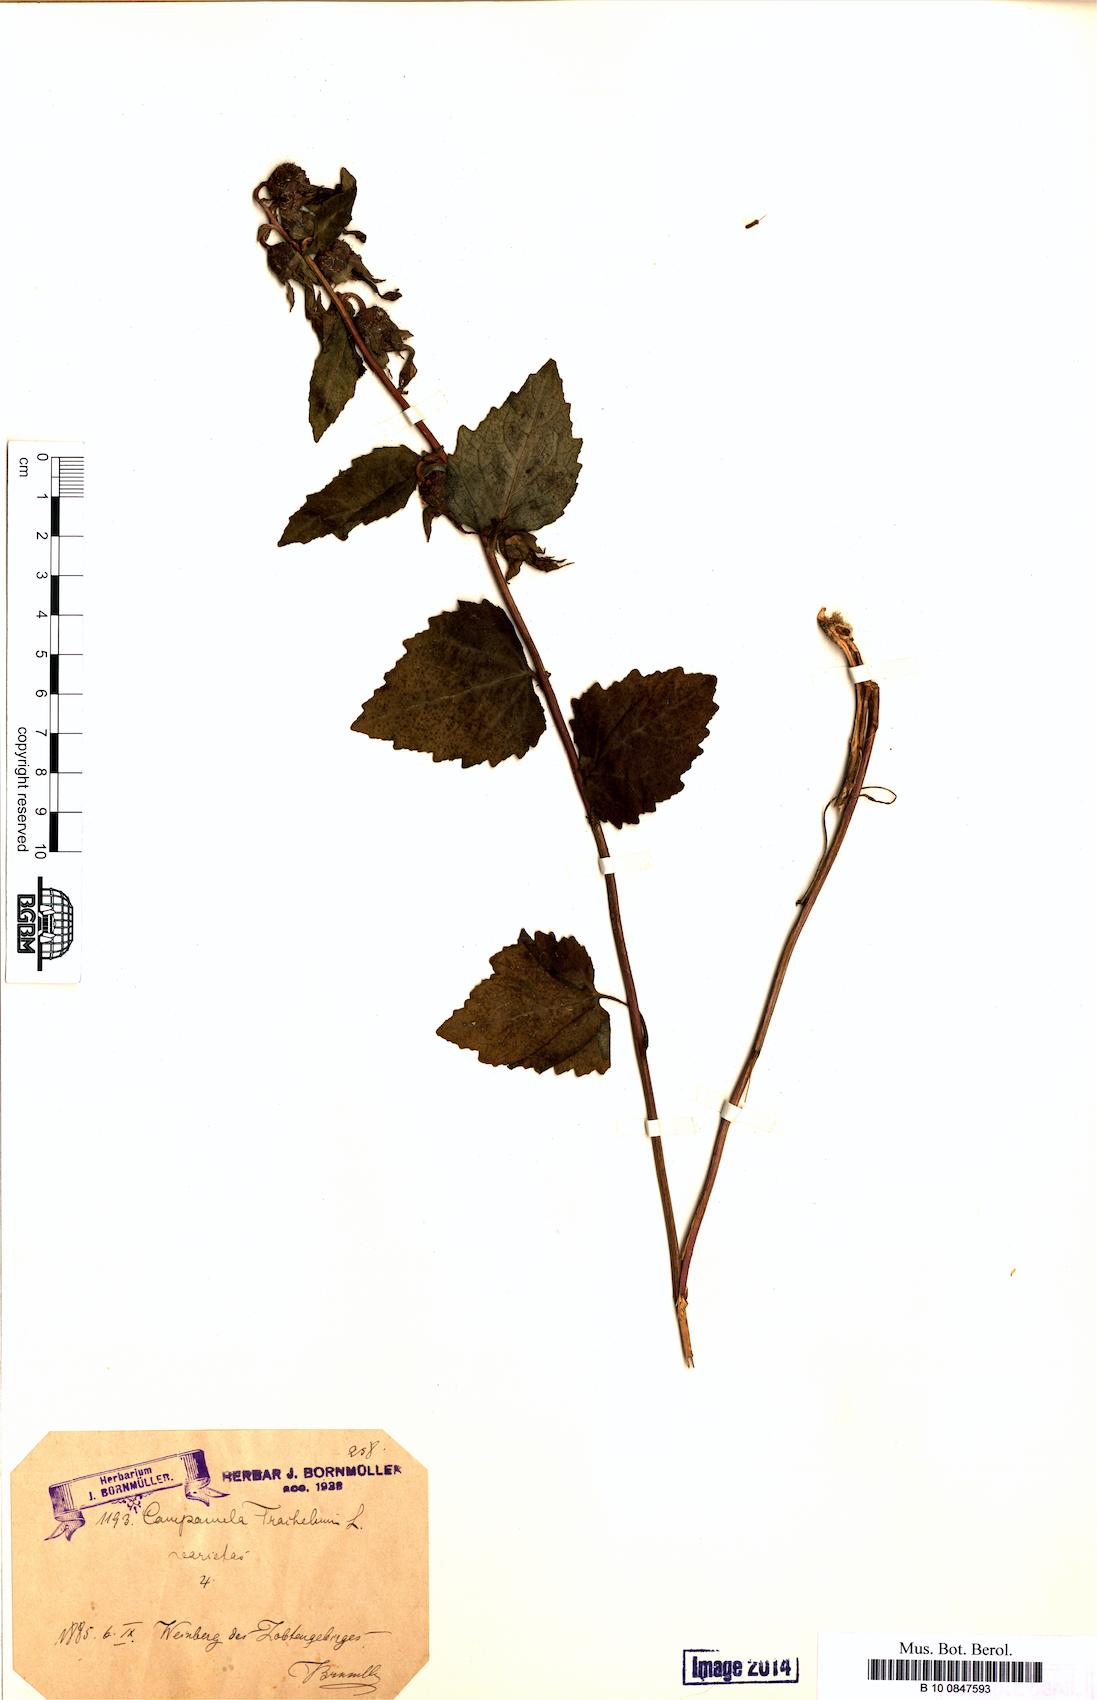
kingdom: Plantae
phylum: Tracheophyta
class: Magnoliopsida
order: Asterales
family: Campanulaceae
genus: Campanula
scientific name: Campanula trachelium
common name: Nettle-leaved bellflower
